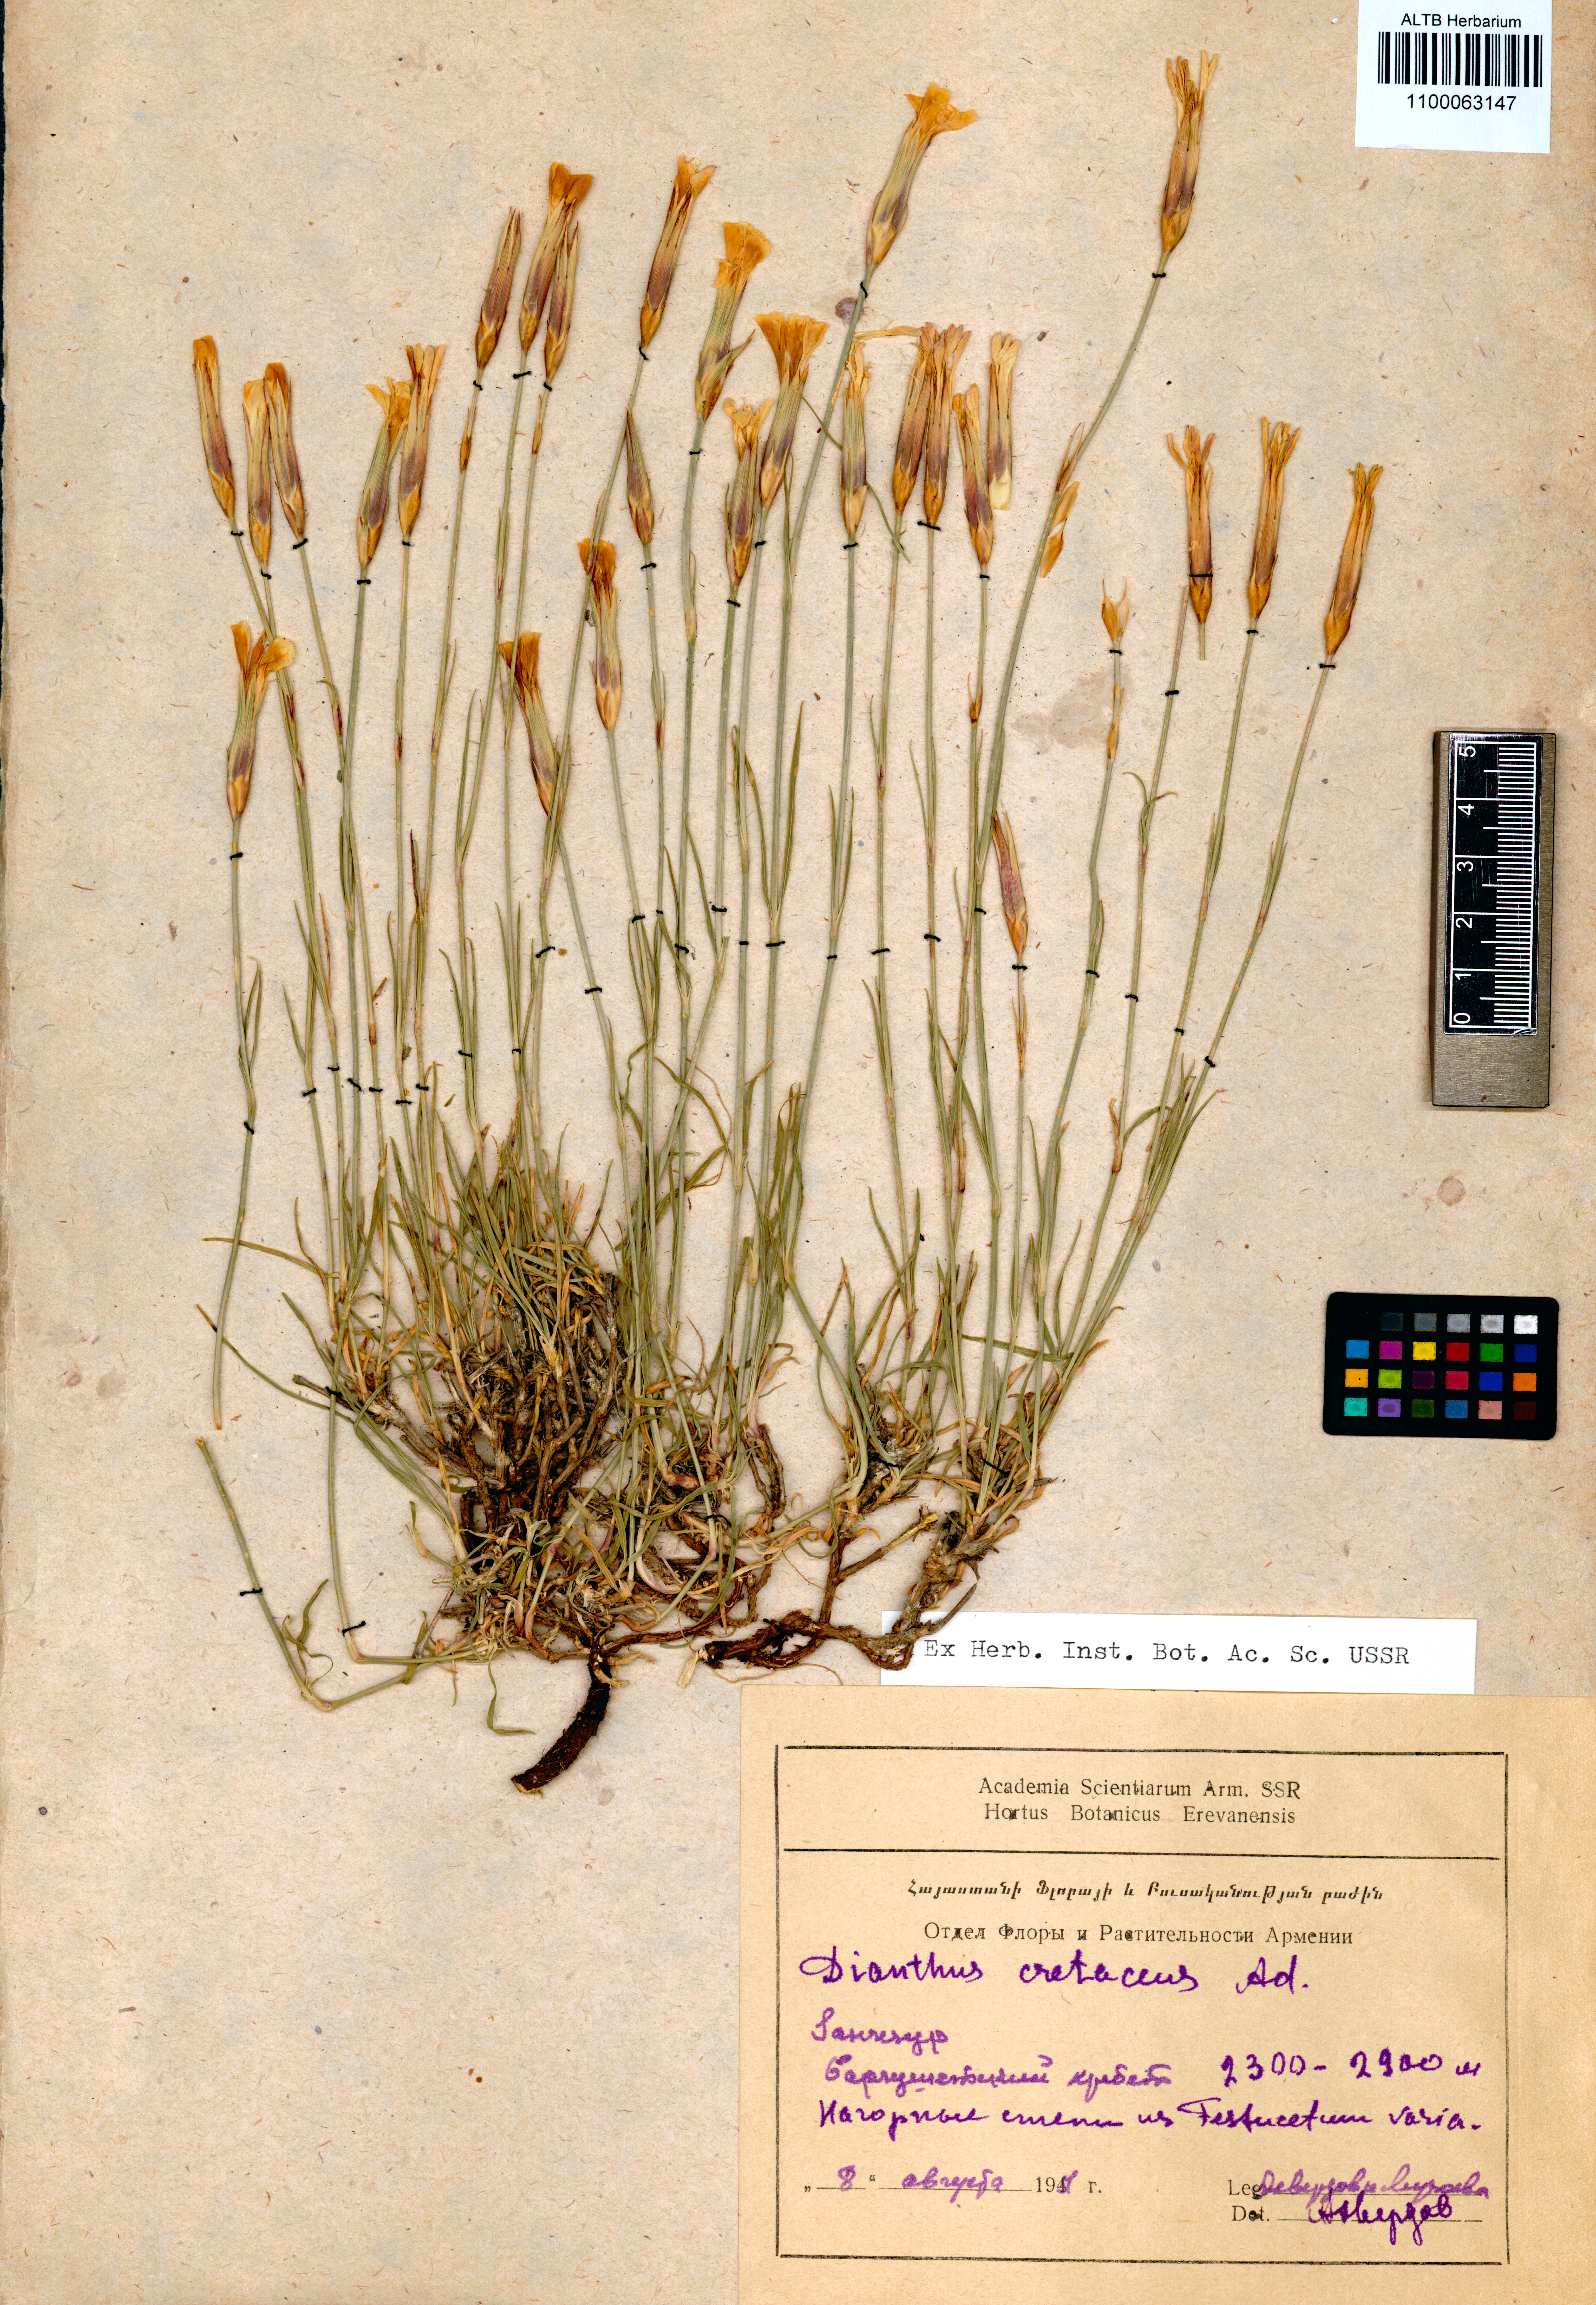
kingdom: Plantae
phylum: Tracheophyta
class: Magnoliopsida
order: Caryophyllales
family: Caryophyllaceae
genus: Dianthus
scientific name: Dianthus cretaceus
